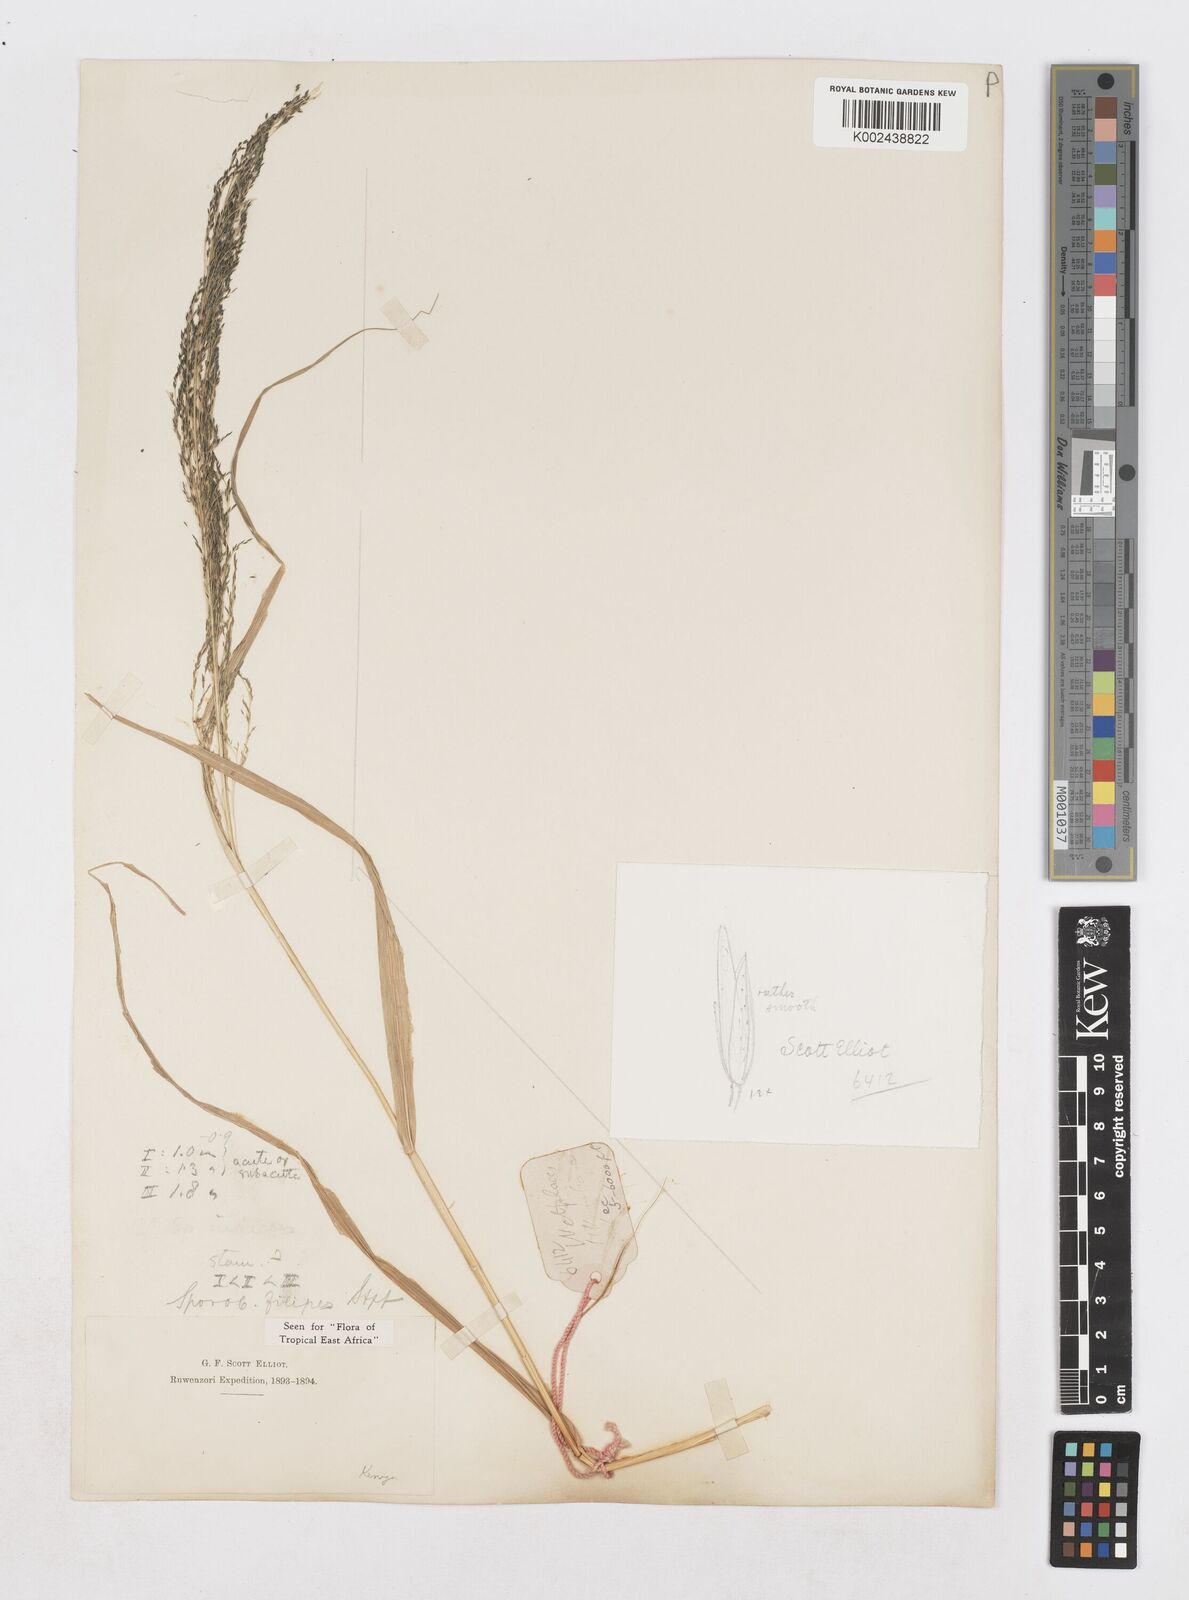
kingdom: Plantae
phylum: Tracheophyta
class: Liliopsida
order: Poales
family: Poaceae
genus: Sporobolus
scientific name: Sporobolus agrostoides
